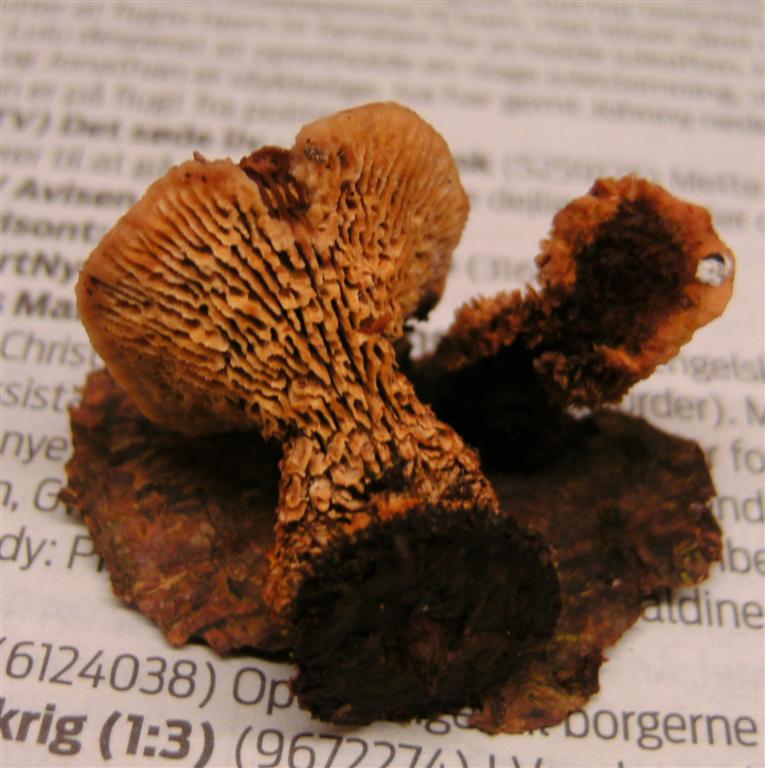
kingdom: Fungi
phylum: Basidiomycota
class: Agaricomycetes
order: Gloeophyllales
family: Gloeophyllaceae
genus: Gloeophyllum
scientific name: Gloeophyllum sepiarium
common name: fyrre-korkhat
